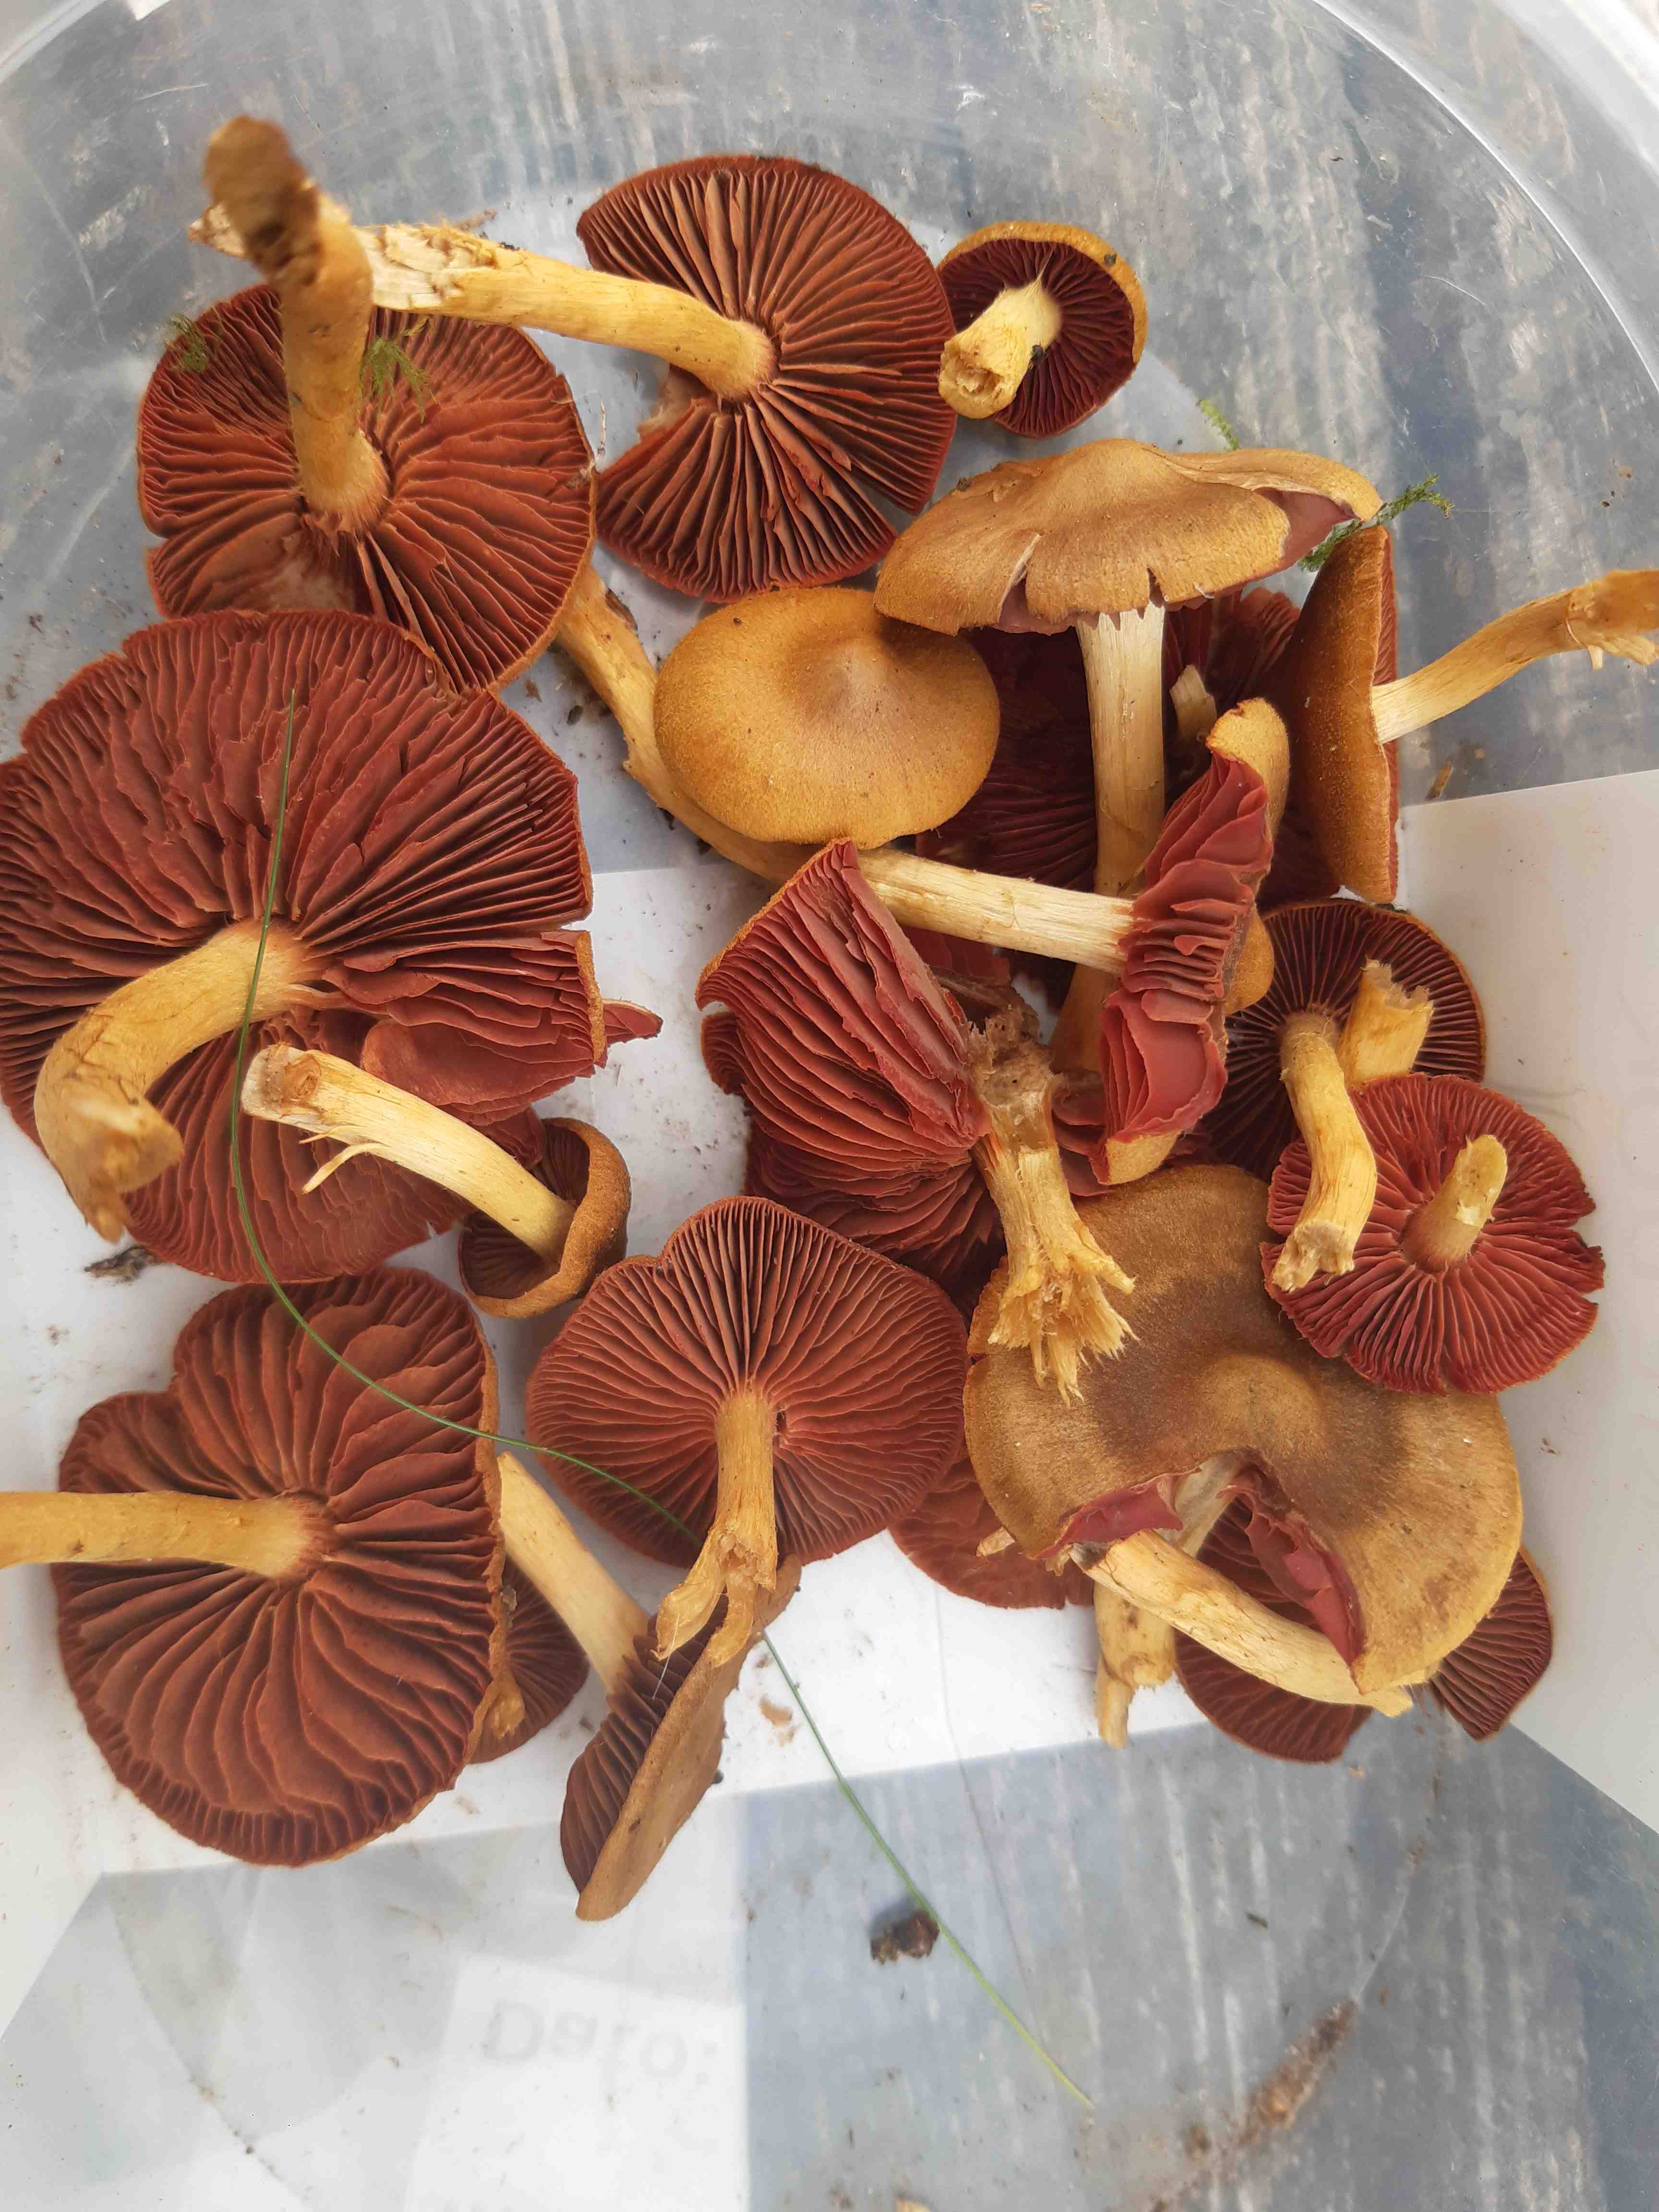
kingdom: Fungi
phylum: Basidiomycota
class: Agaricomycetes
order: Agaricales
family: Cortinariaceae
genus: Cortinarius
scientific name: Cortinarius
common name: cinnoberbladet slørhat
